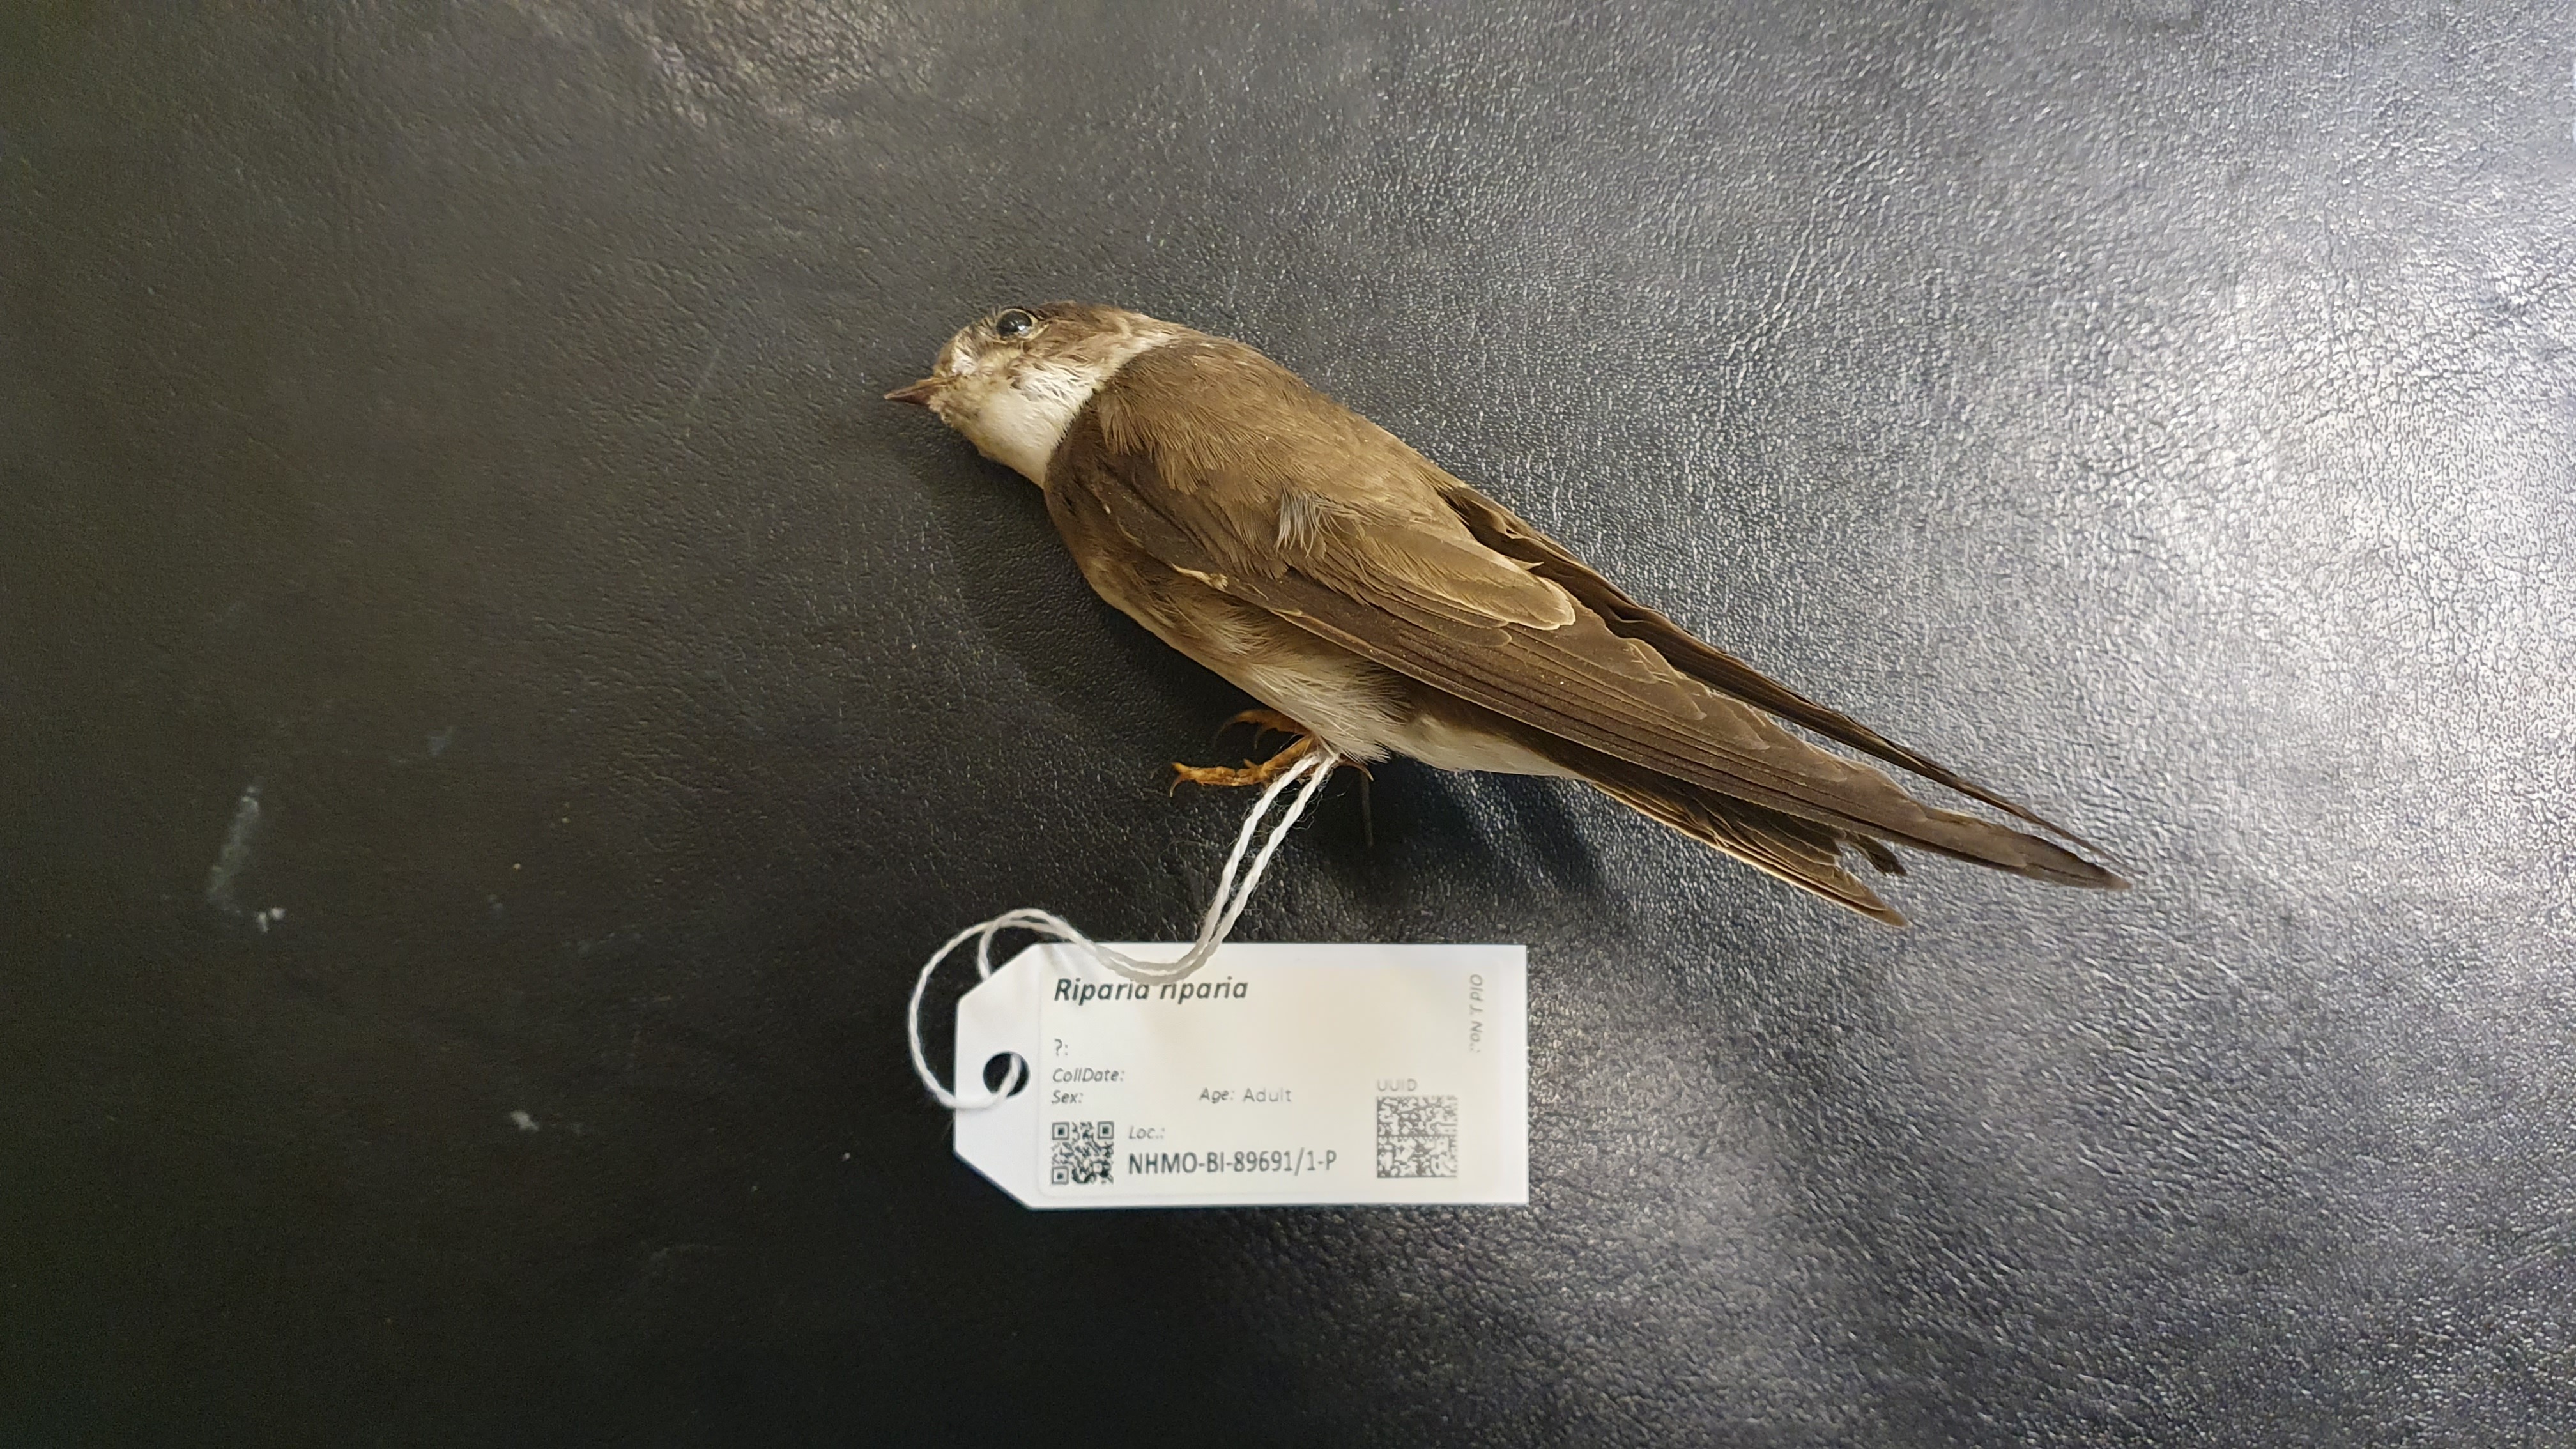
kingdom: Animalia
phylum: Chordata
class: Aves
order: Passeriformes
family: Hirundinidae
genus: Riparia
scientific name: Riparia riparia
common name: Sand martin
